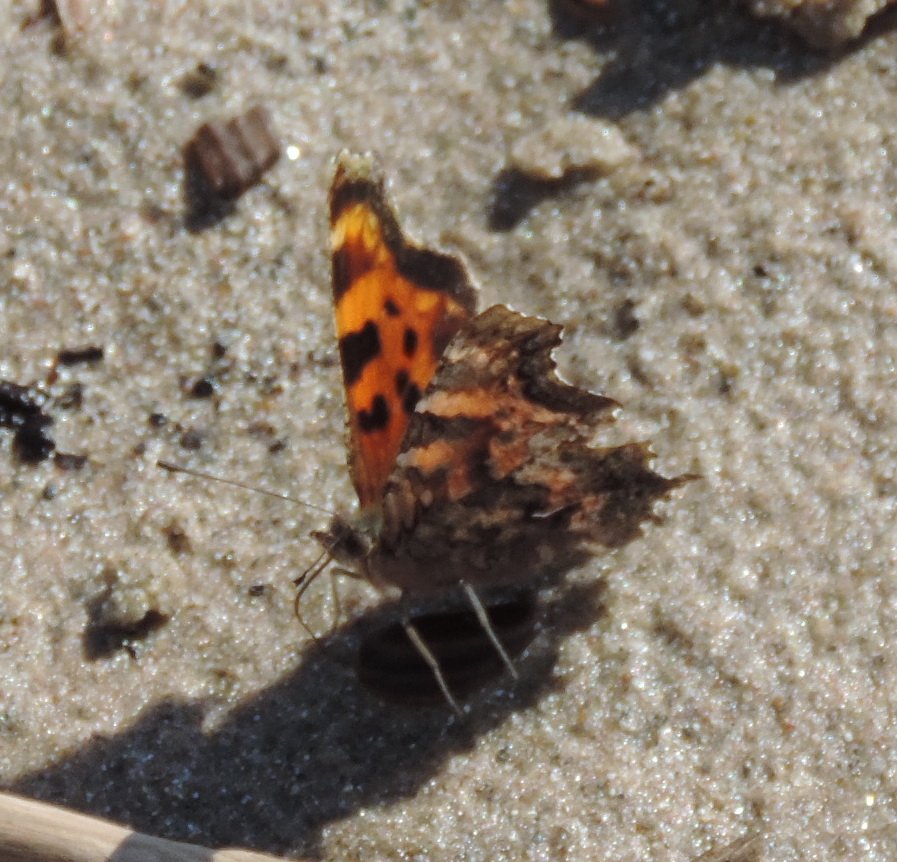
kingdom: Animalia
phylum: Arthropoda
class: Insecta
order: Lepidoptera
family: Nymphalidae
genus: Polygonia
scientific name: Polygonia faunus
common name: Green Comma
